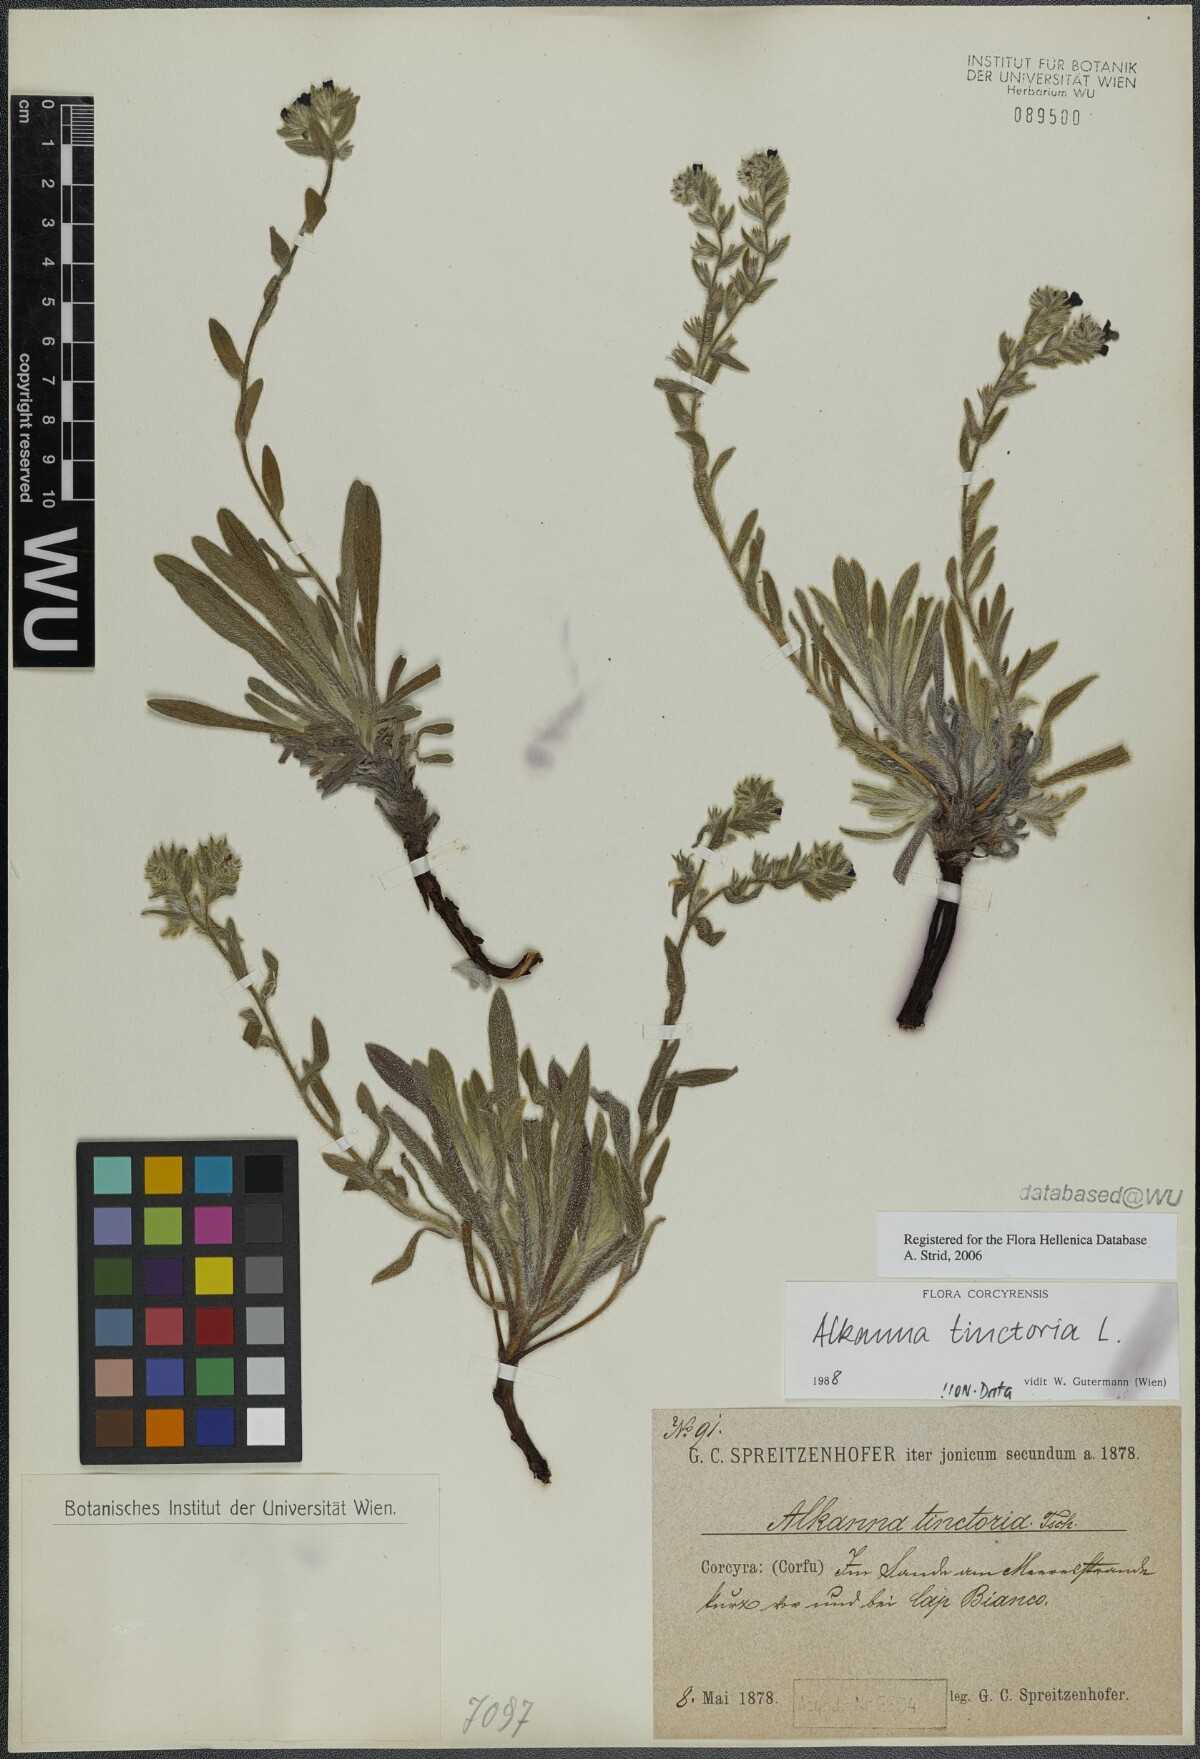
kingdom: Plantae
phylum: Tracheophyta
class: Magnoliopsida
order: Boraginales
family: Boraginaceae
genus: Alkanna
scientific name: Alkanna tinctoria
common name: Dyer's-alkanet
